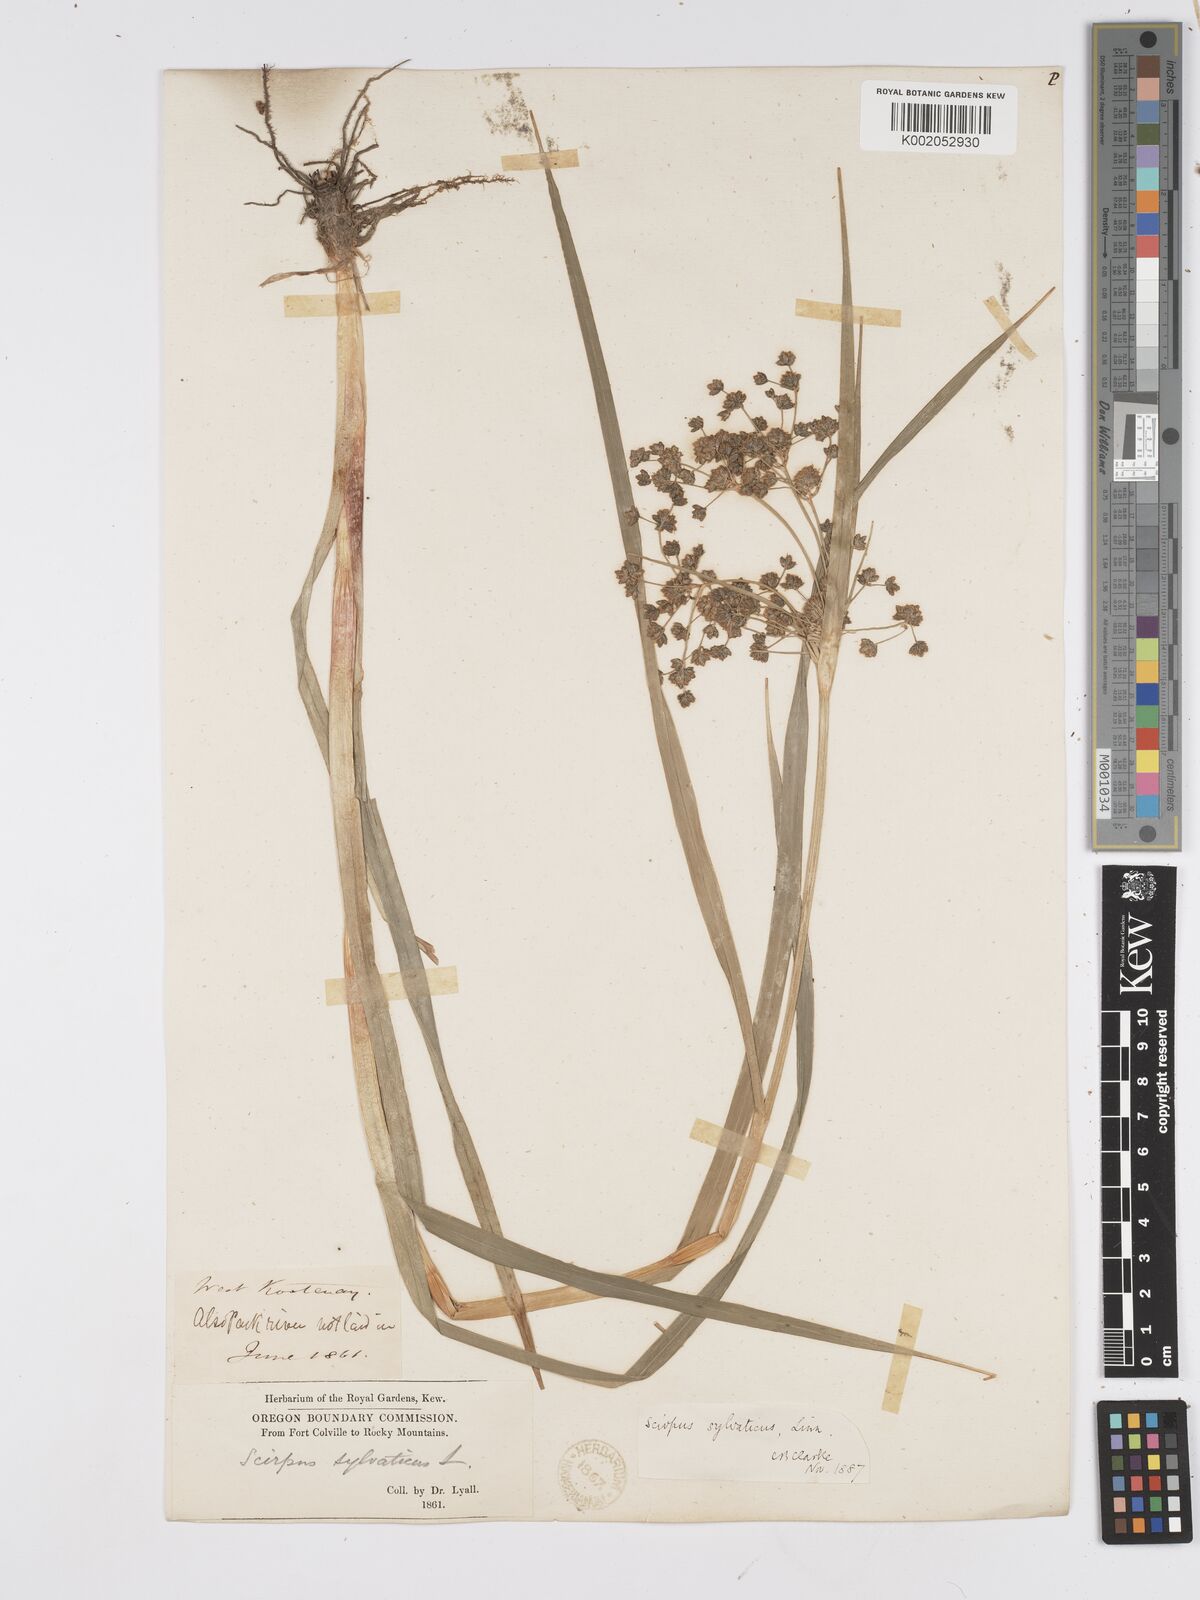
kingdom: Plantae
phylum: Tracheophyta
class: Liliopsida
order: Poales
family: Cyperaceae
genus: Scirpus
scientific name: Scirpus sylvaticus
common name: Wood club-rush
